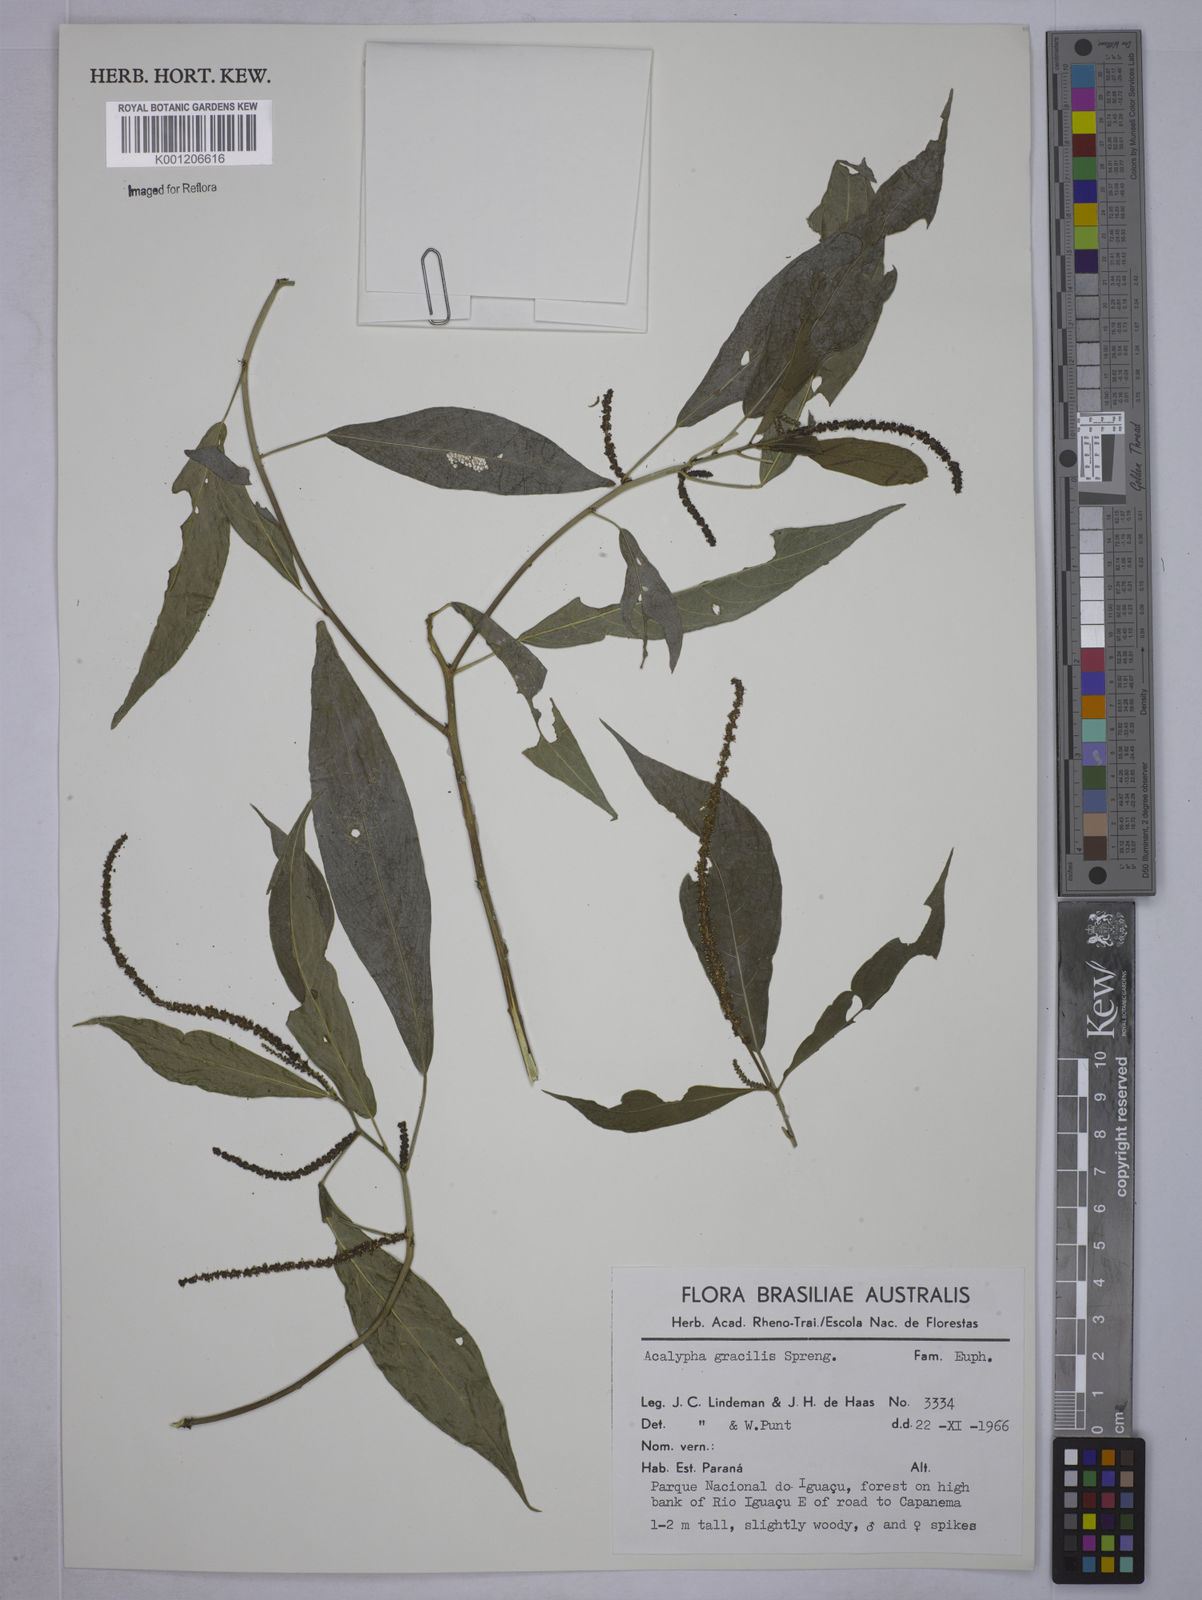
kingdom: Plantae
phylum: Tracheophyta
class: Magnoliopsida
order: Malpighiales
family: Euphorbiaceae
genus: Acalypha
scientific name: Acalypha gracilis
